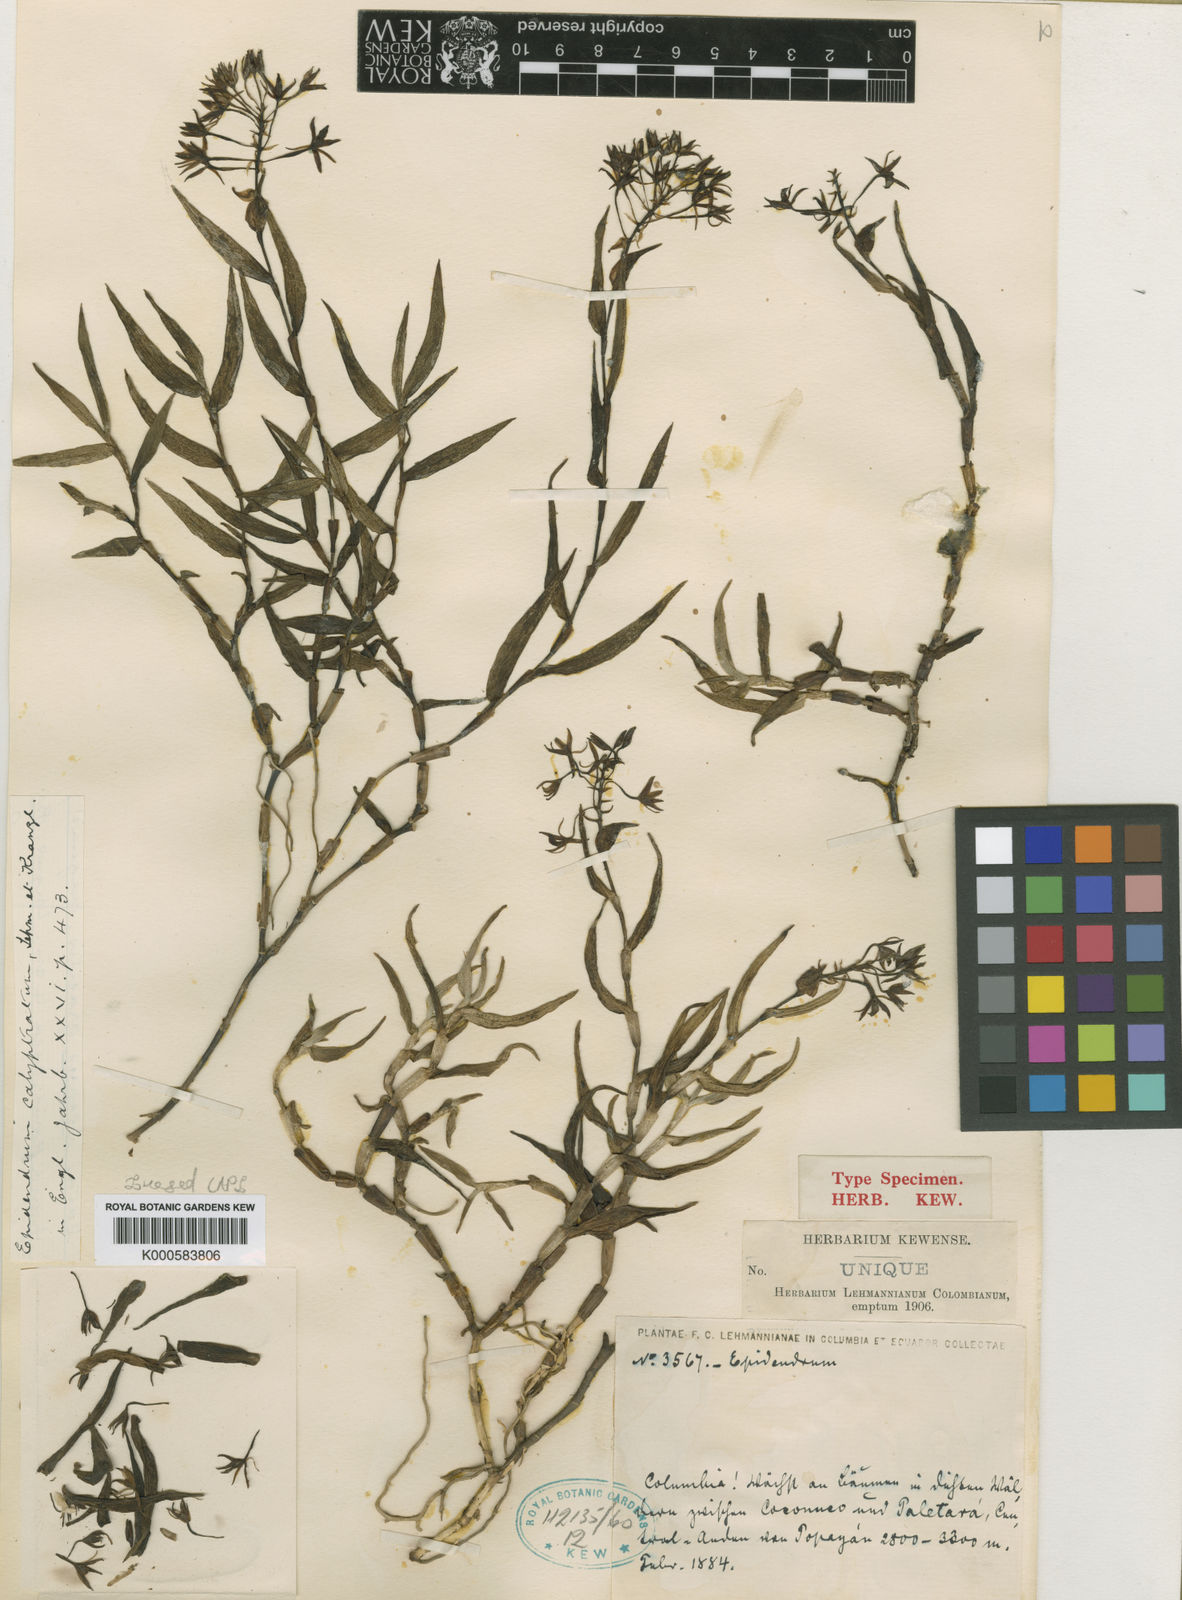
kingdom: Plantae
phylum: Tracheophyta
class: Liliopsida
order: Asparagales
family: Orchidaceae
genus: Epidendrum
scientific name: Epidendrum calyptratum
